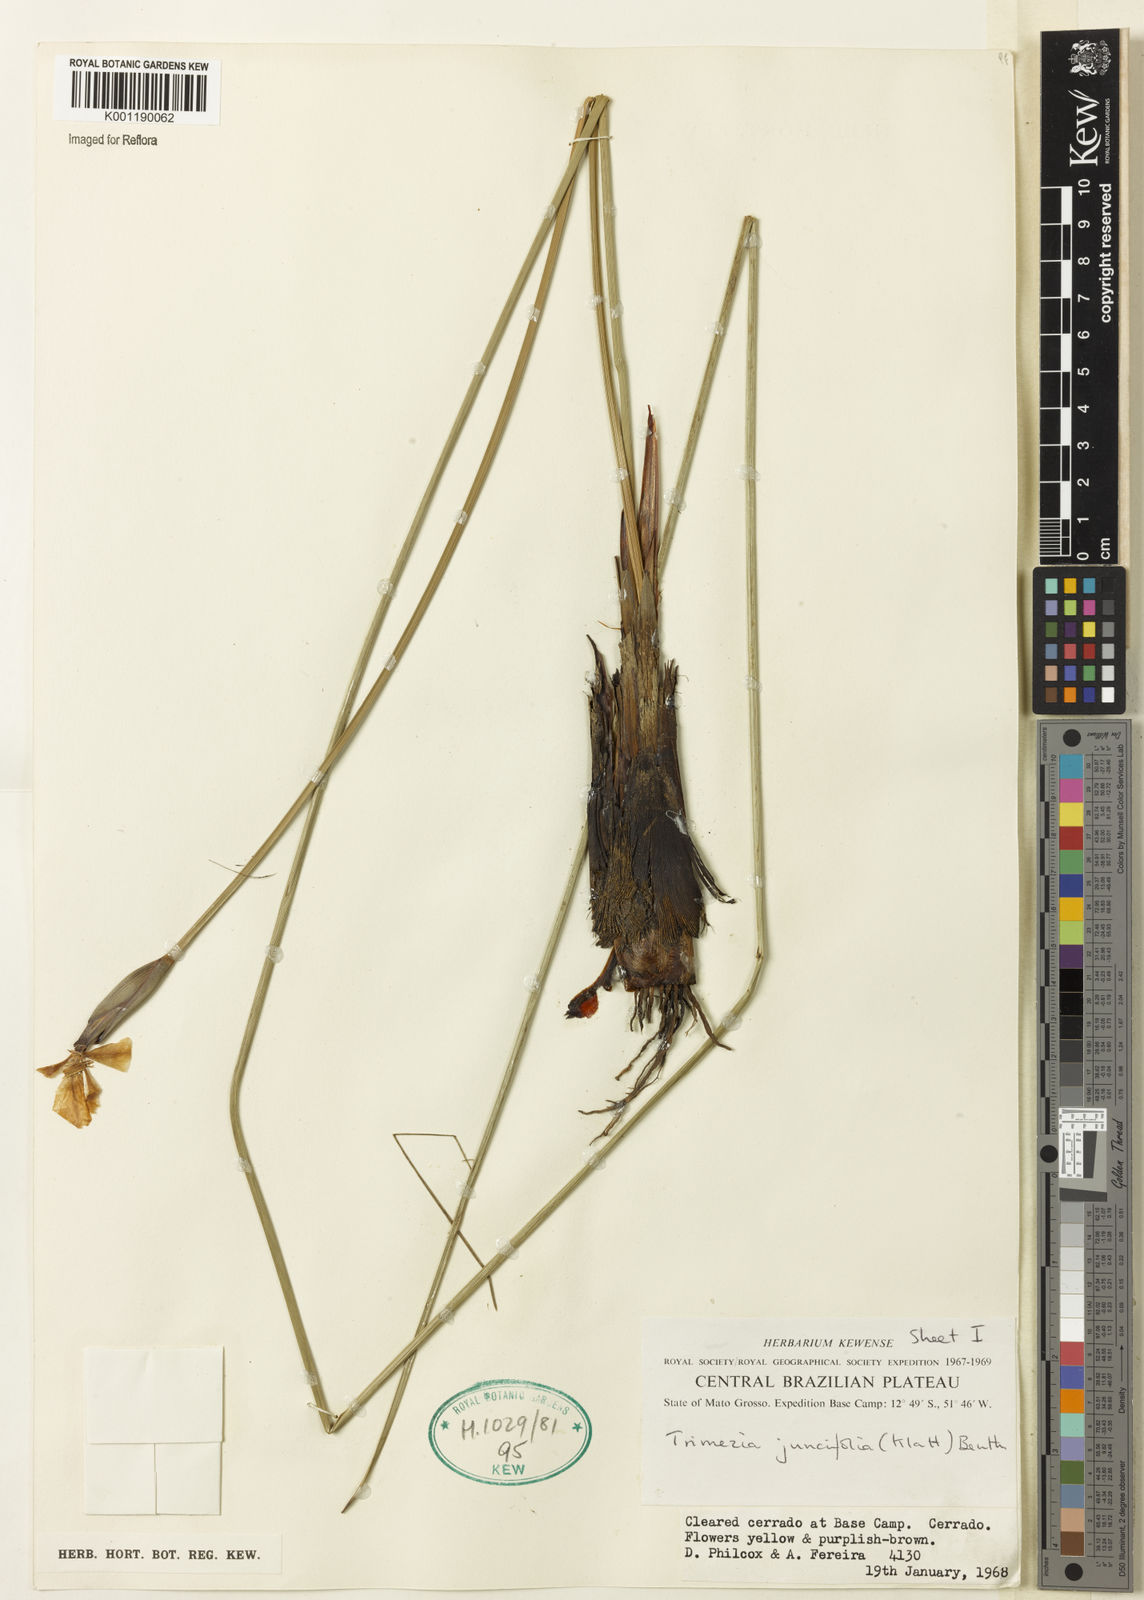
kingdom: Plantae
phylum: Tracheophyta
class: Liliopsida
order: Asparagales
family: Iridaceae
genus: Trimezia
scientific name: Trimezia juncifolia
